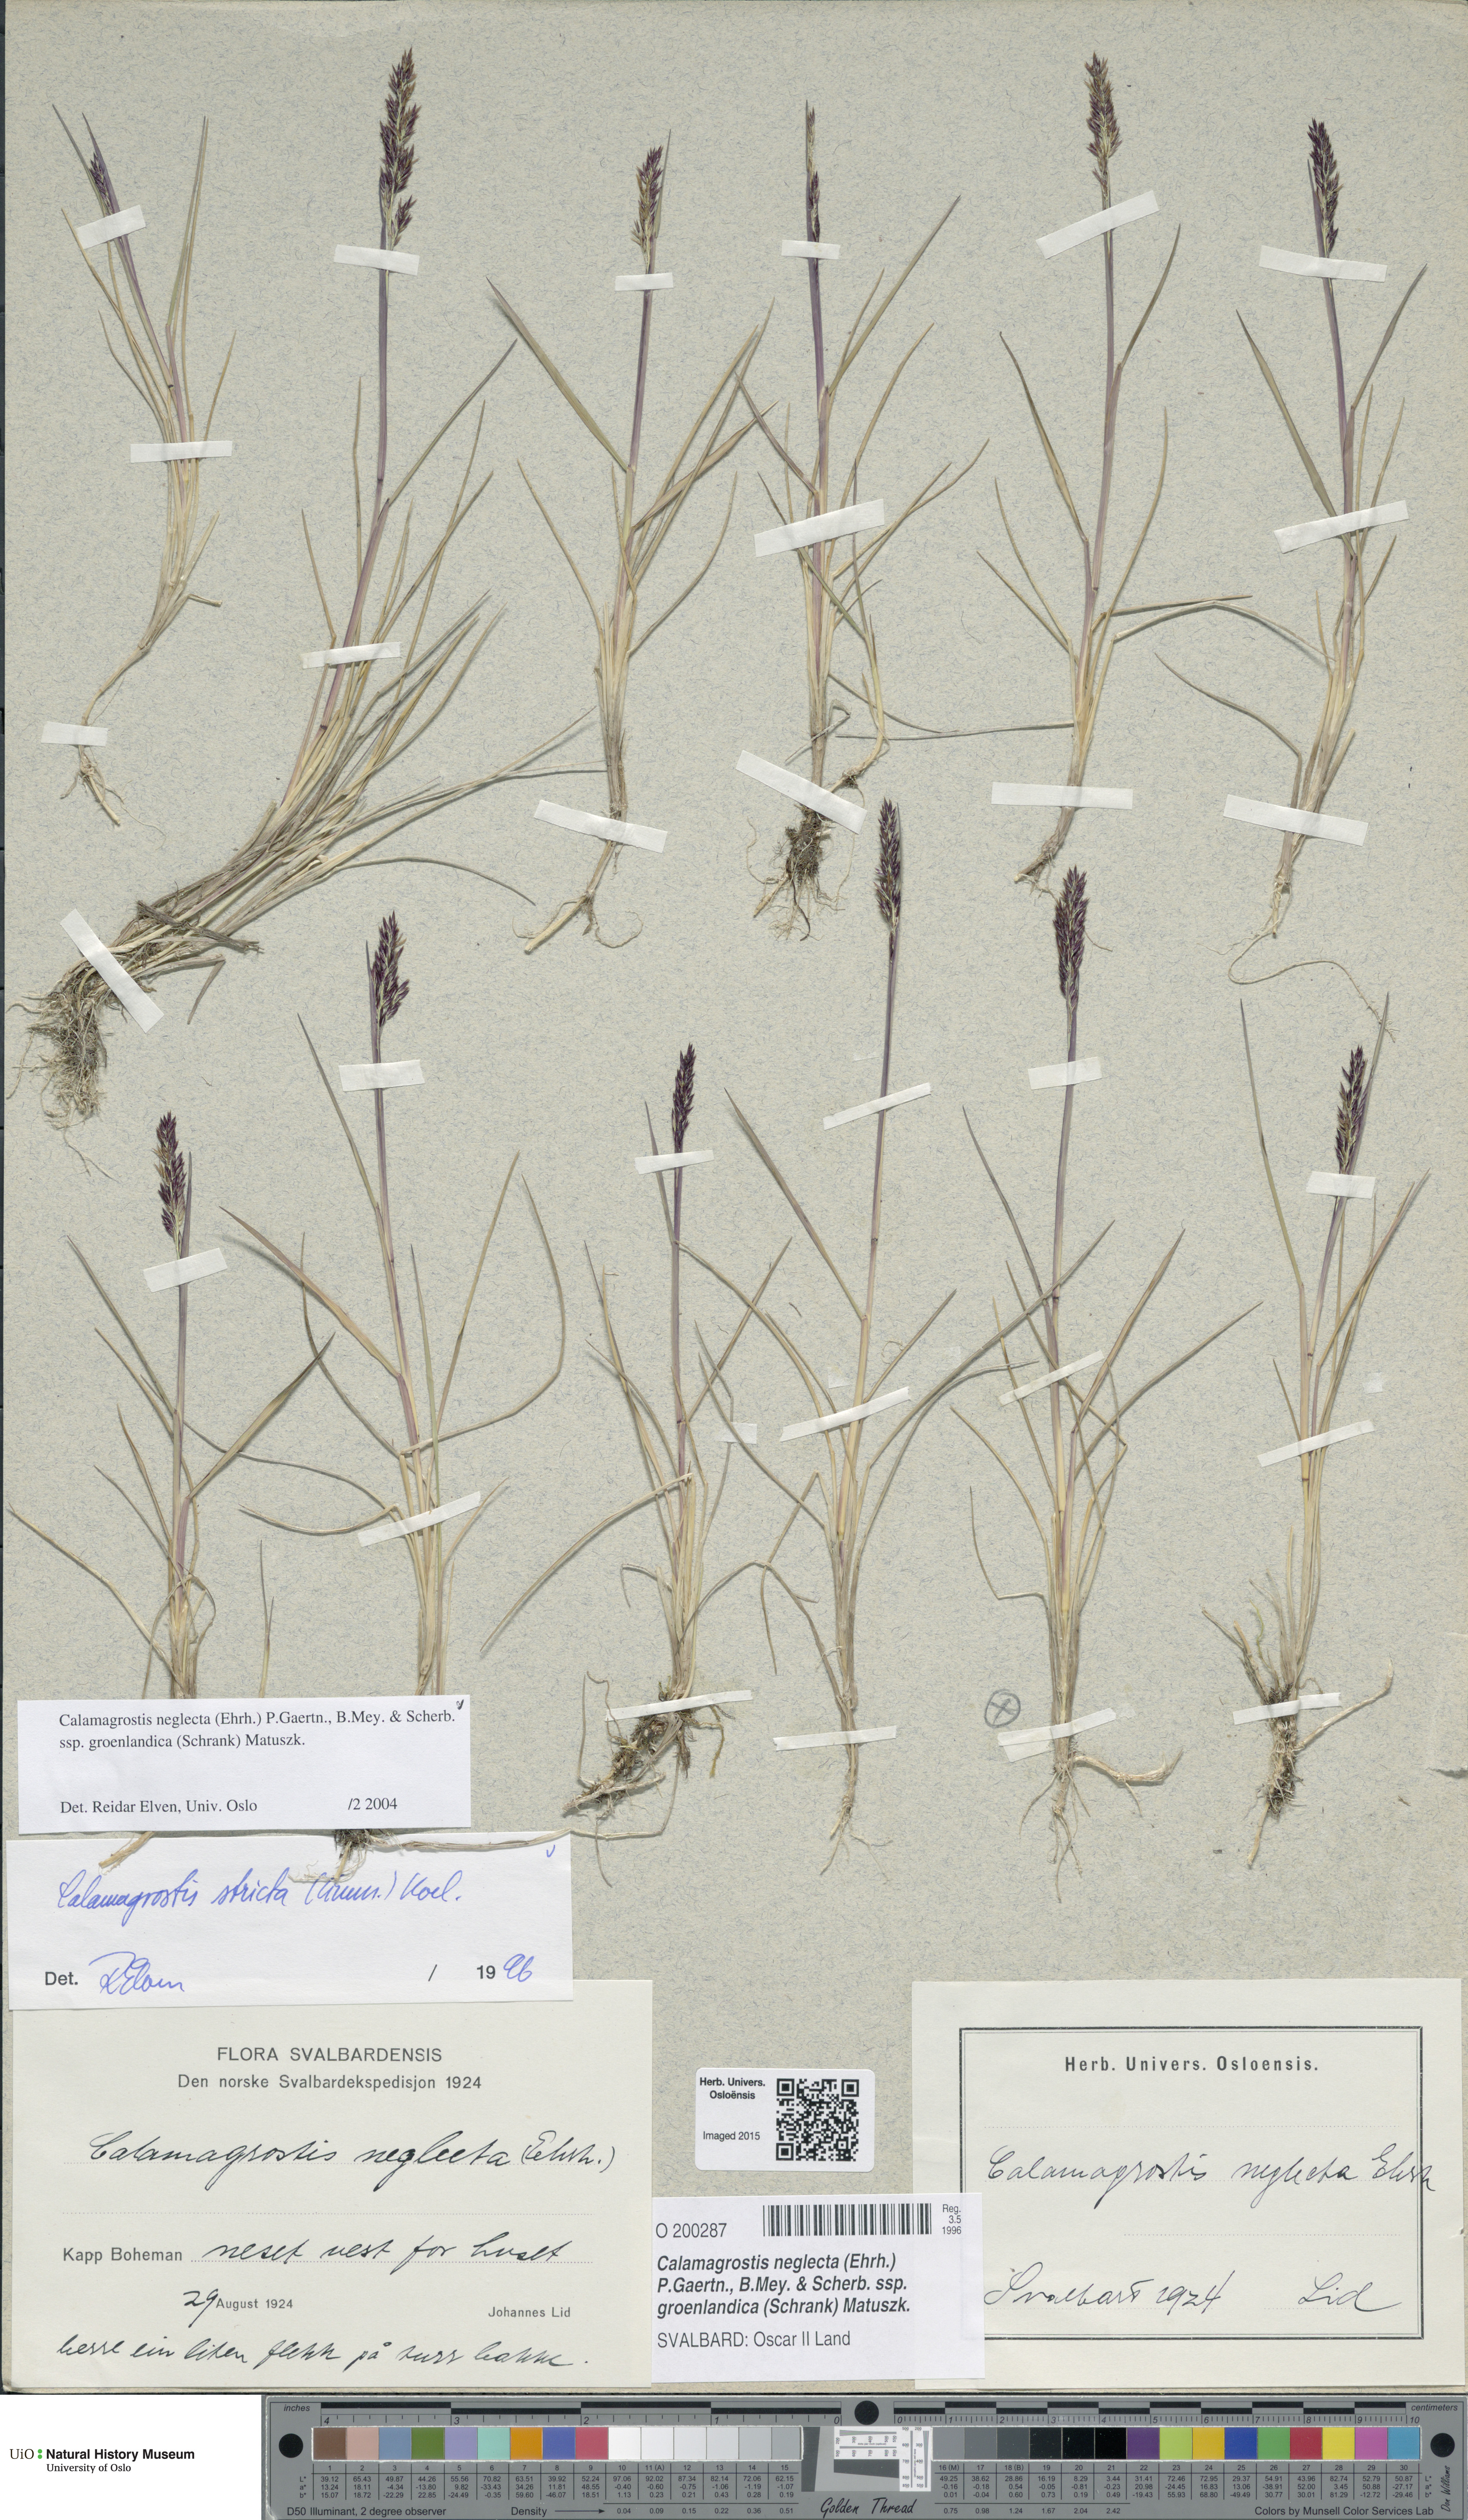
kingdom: Plantae
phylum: Tracheophyta
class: Liliopsida
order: Poales
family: Poaceae
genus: Calamagrostis
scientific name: Calamagrostis stricta
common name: Narrow small-reed
